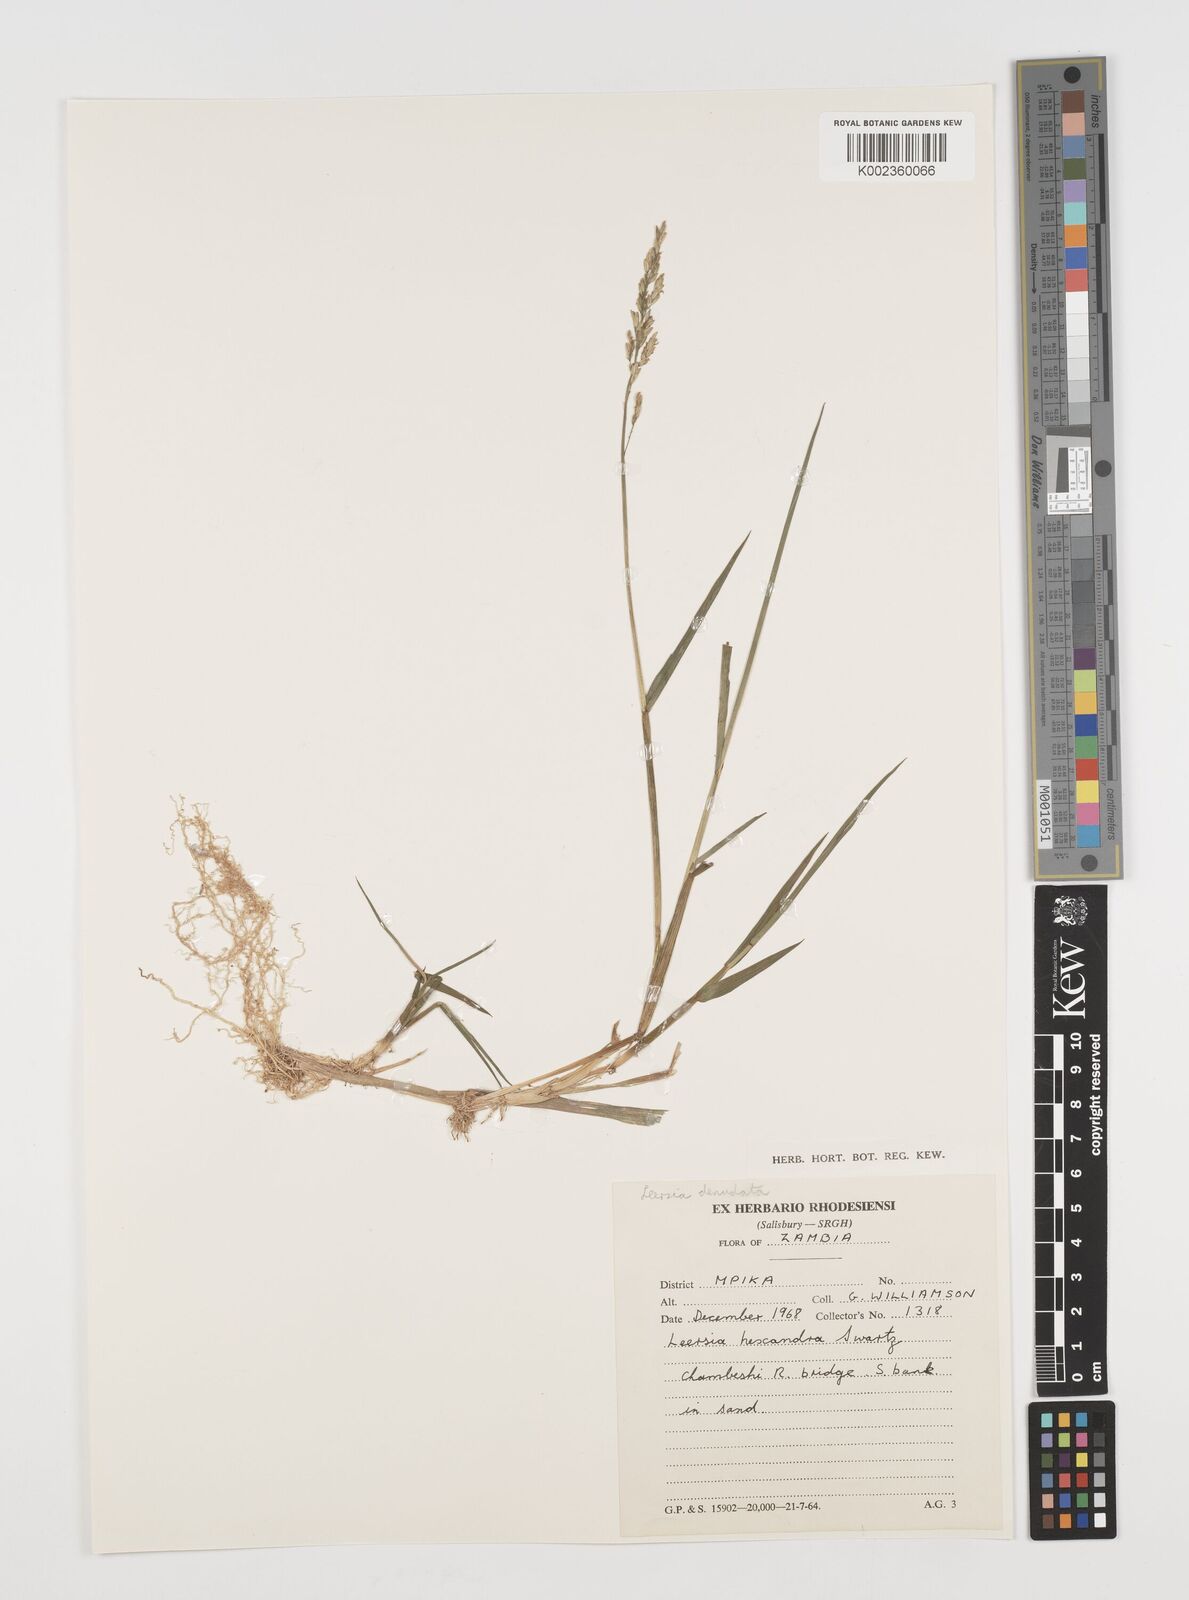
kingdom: Plantae
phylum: Tracheophyta
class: Liliopsida
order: Poales
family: Poaceae
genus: Leersia
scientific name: Leersia denudata
